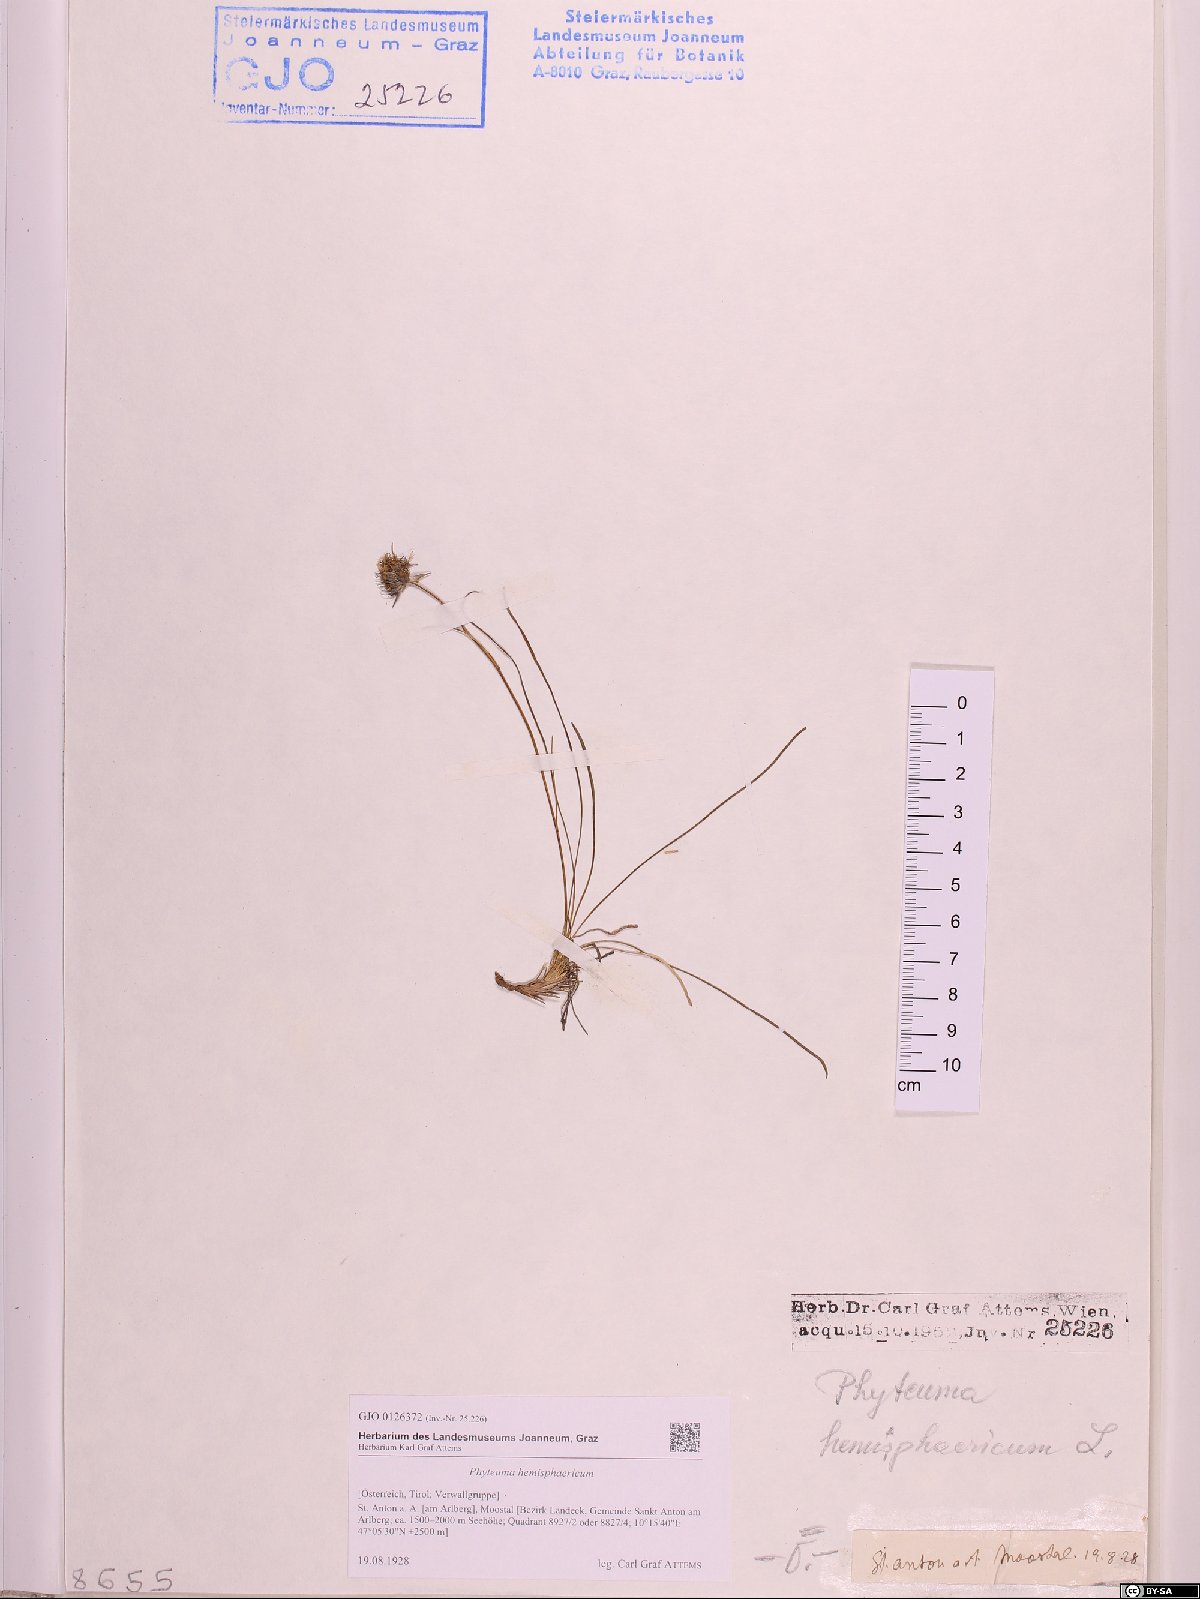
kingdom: Plantae
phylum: Tracheophyta
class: Magnoliopsida
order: Asterales
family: Campanulaceae
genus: Phyteuma
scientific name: Phyteuma hemisphaericum
